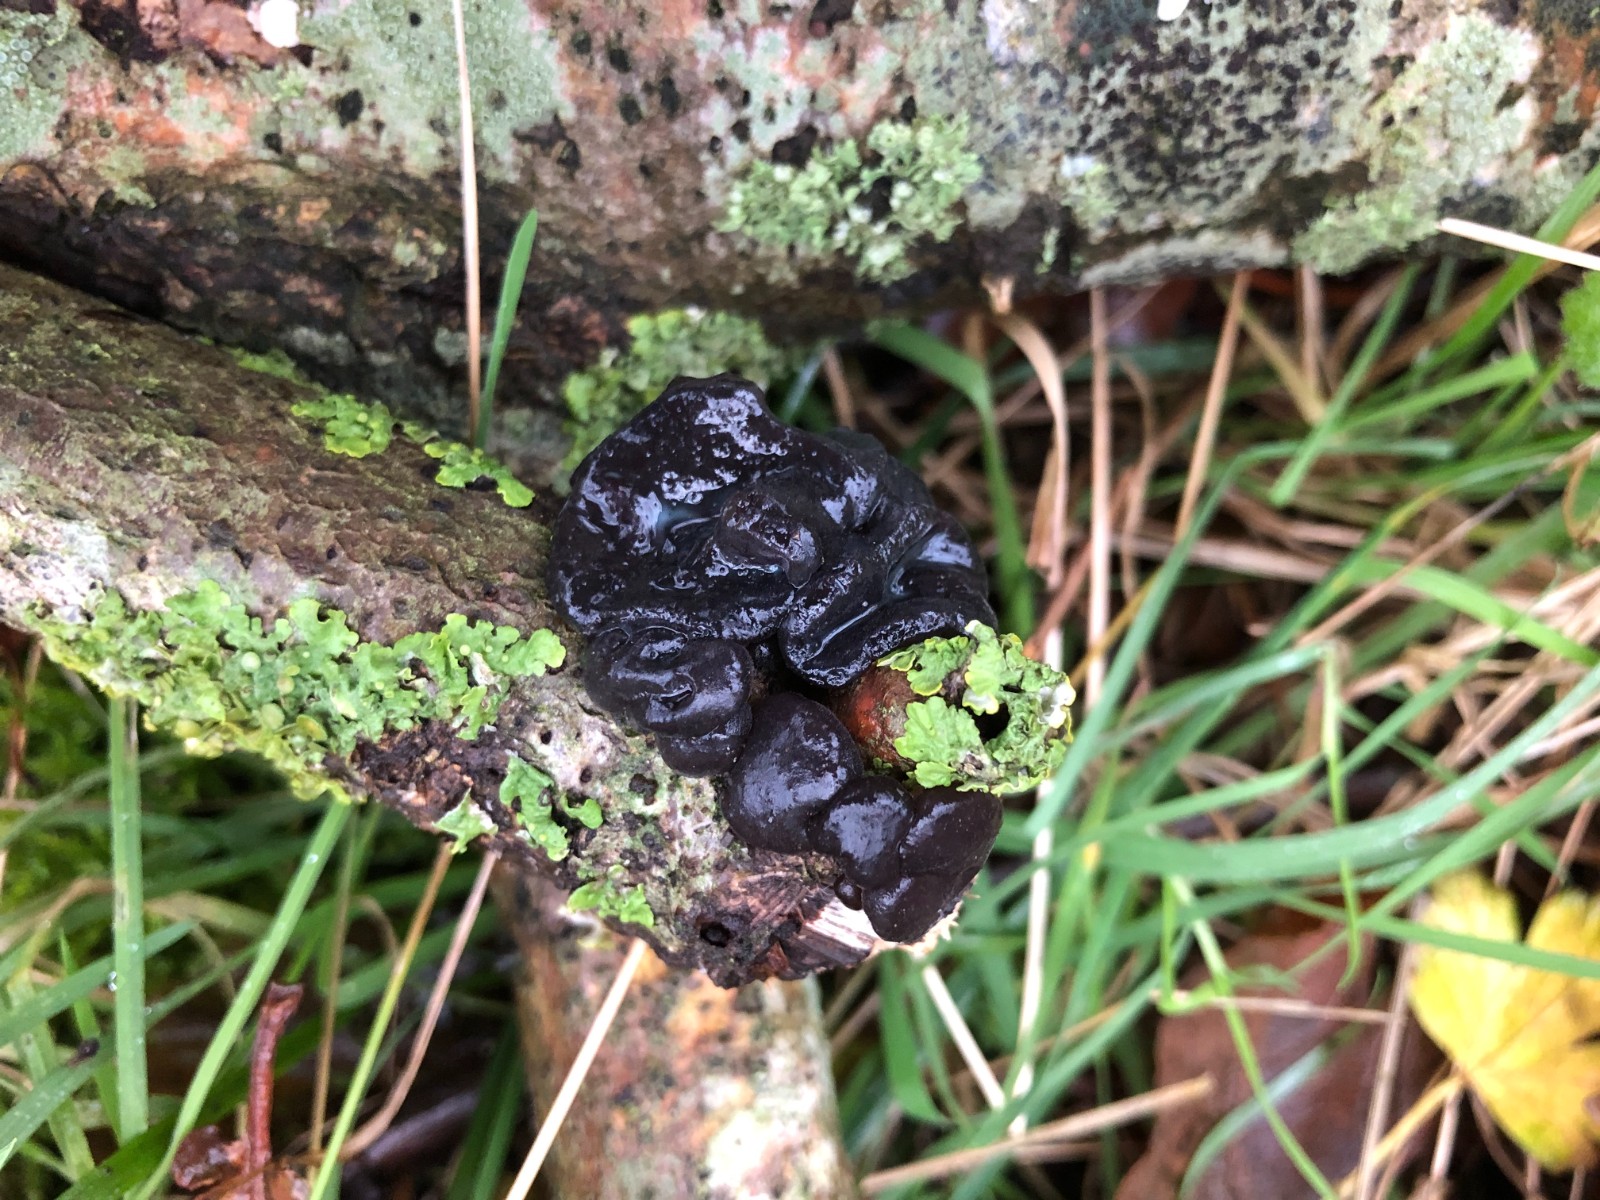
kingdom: Fungi
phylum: Basidiomycota
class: Agaricomycetes
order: Auriculariales
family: Auriculariaceae
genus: Exidia
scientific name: Exidia glandulosa
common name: ege-bævretop
